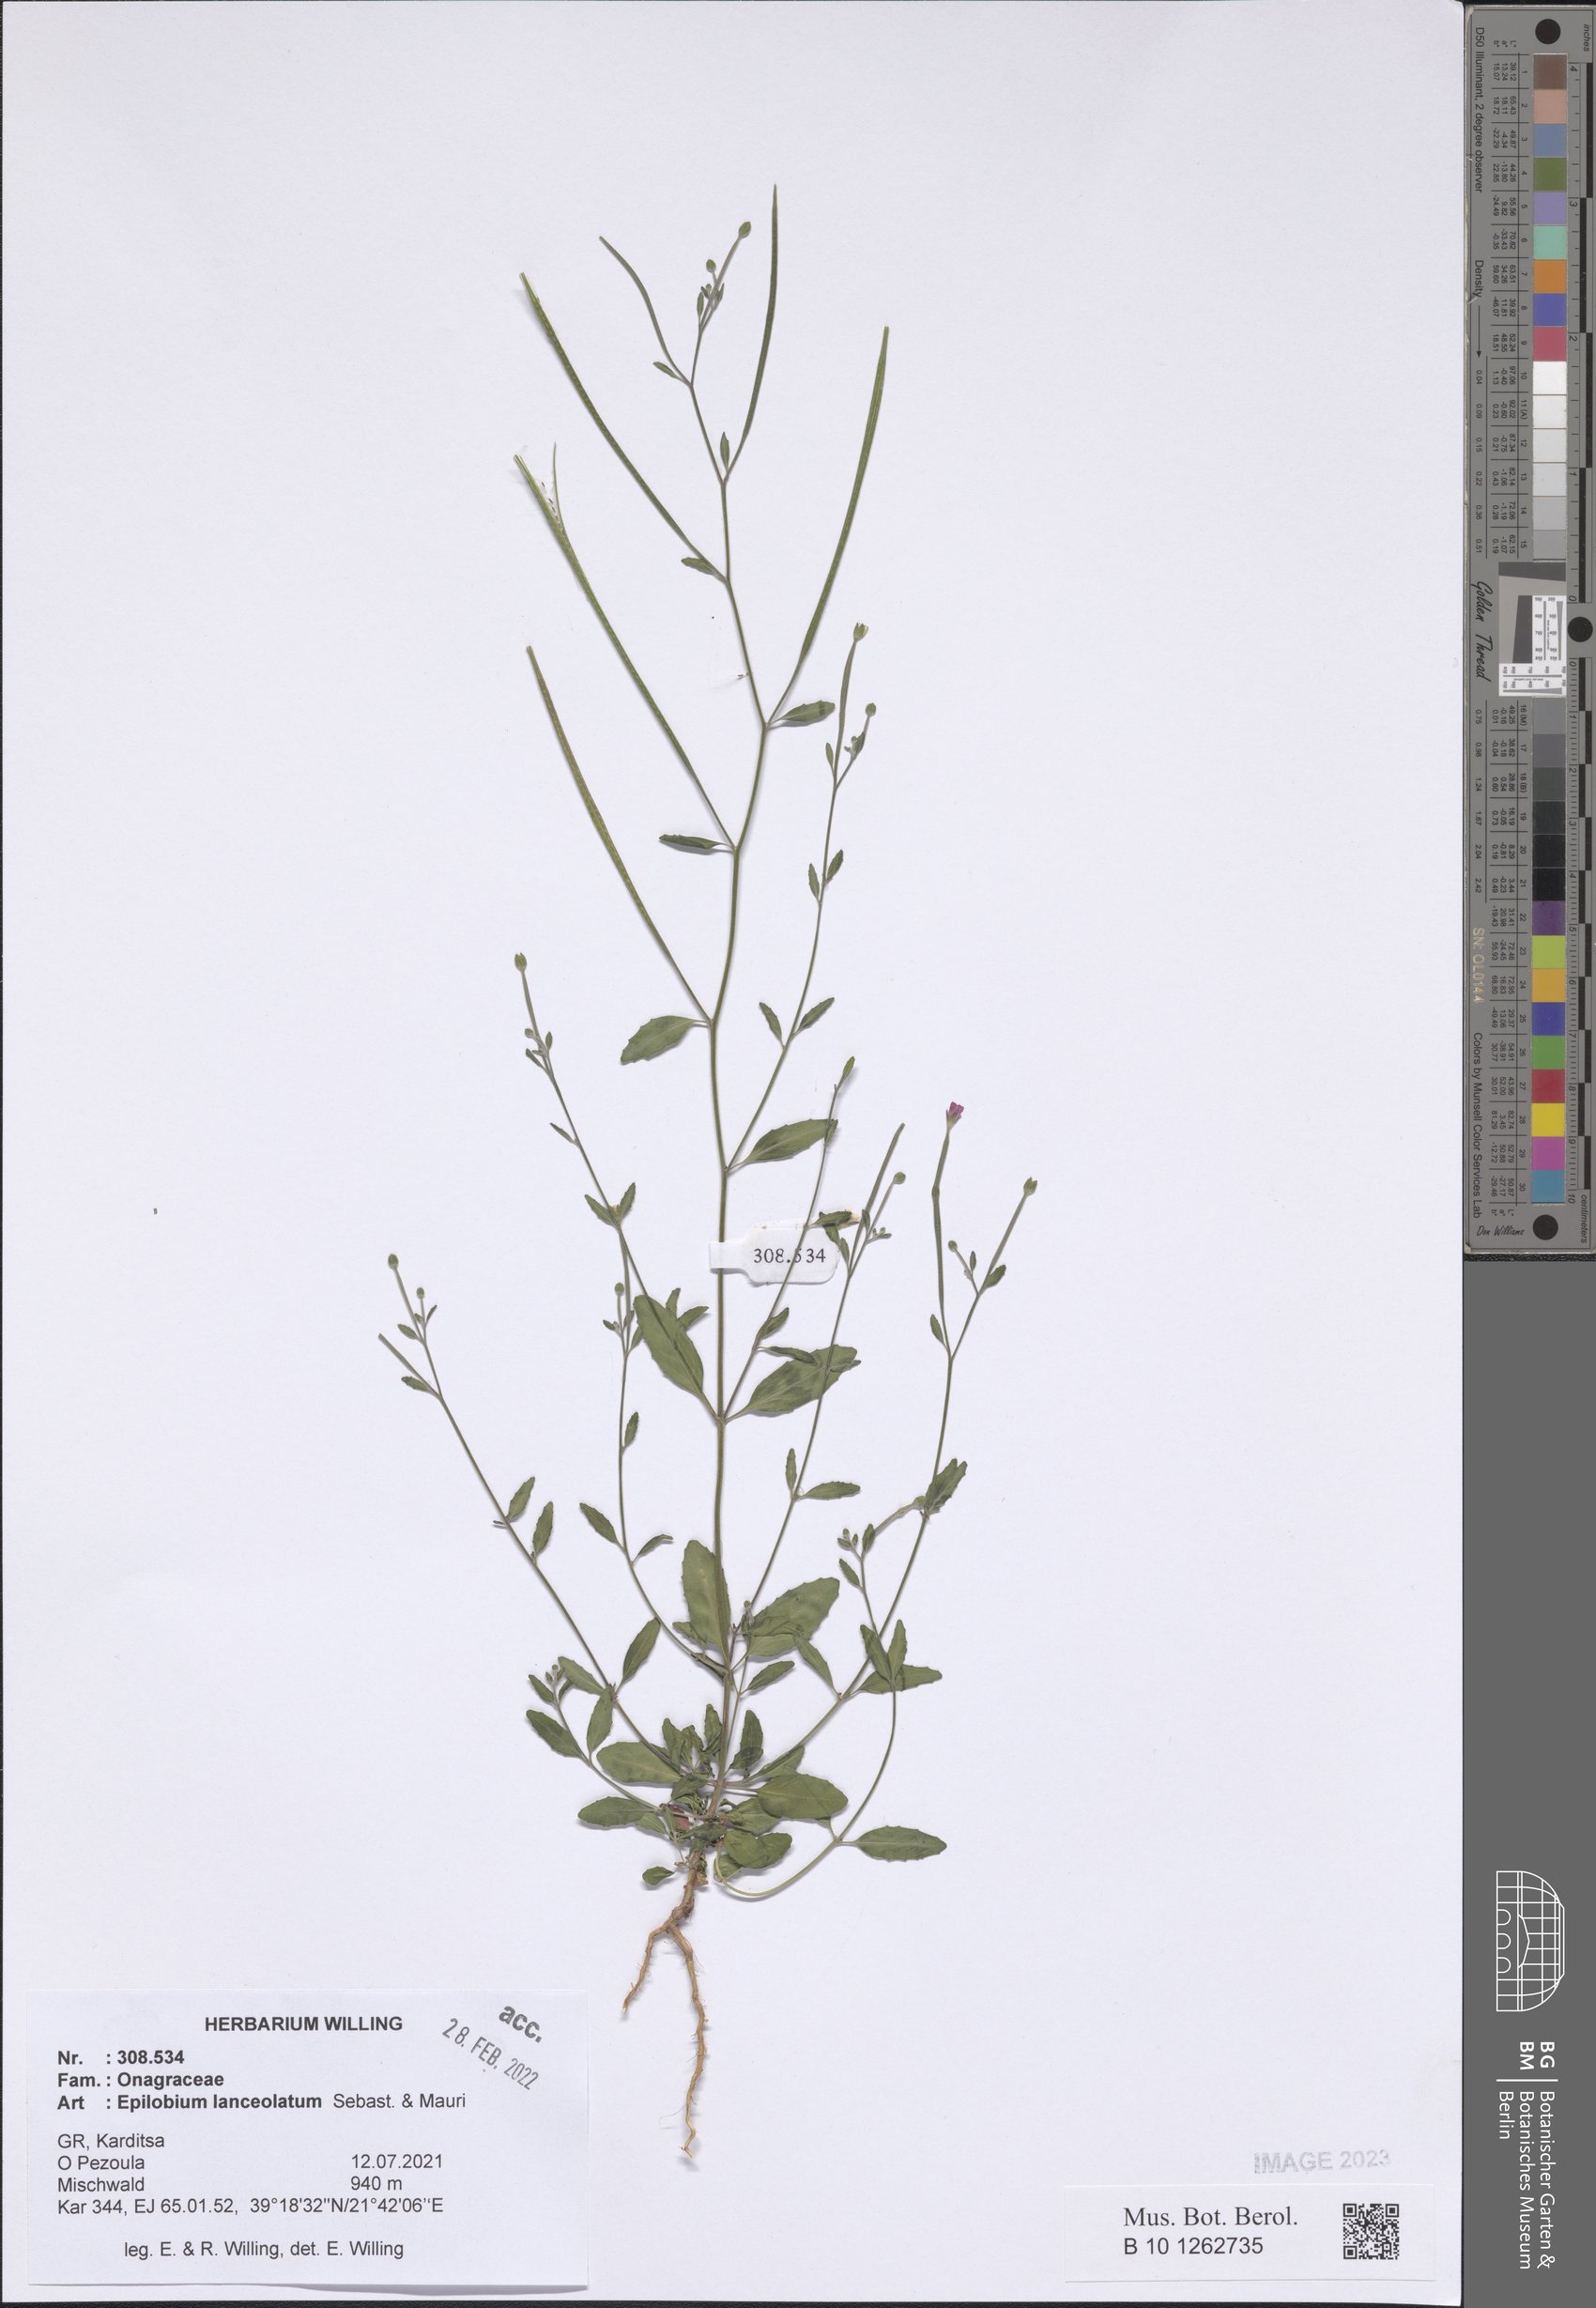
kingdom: Plantae
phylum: Tracheophyta
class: Magnoliopsida
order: Myrtales
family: Onagraceae
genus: Epilobium
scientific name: Epilobium lanceolatum
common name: Spear-leaved willowherb
